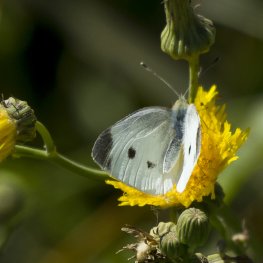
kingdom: Animalia
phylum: Arthropoda
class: Insecta
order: Lepidoptera
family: Pieridae
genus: Pieris
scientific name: Pieris rapae
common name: Cabbage White
